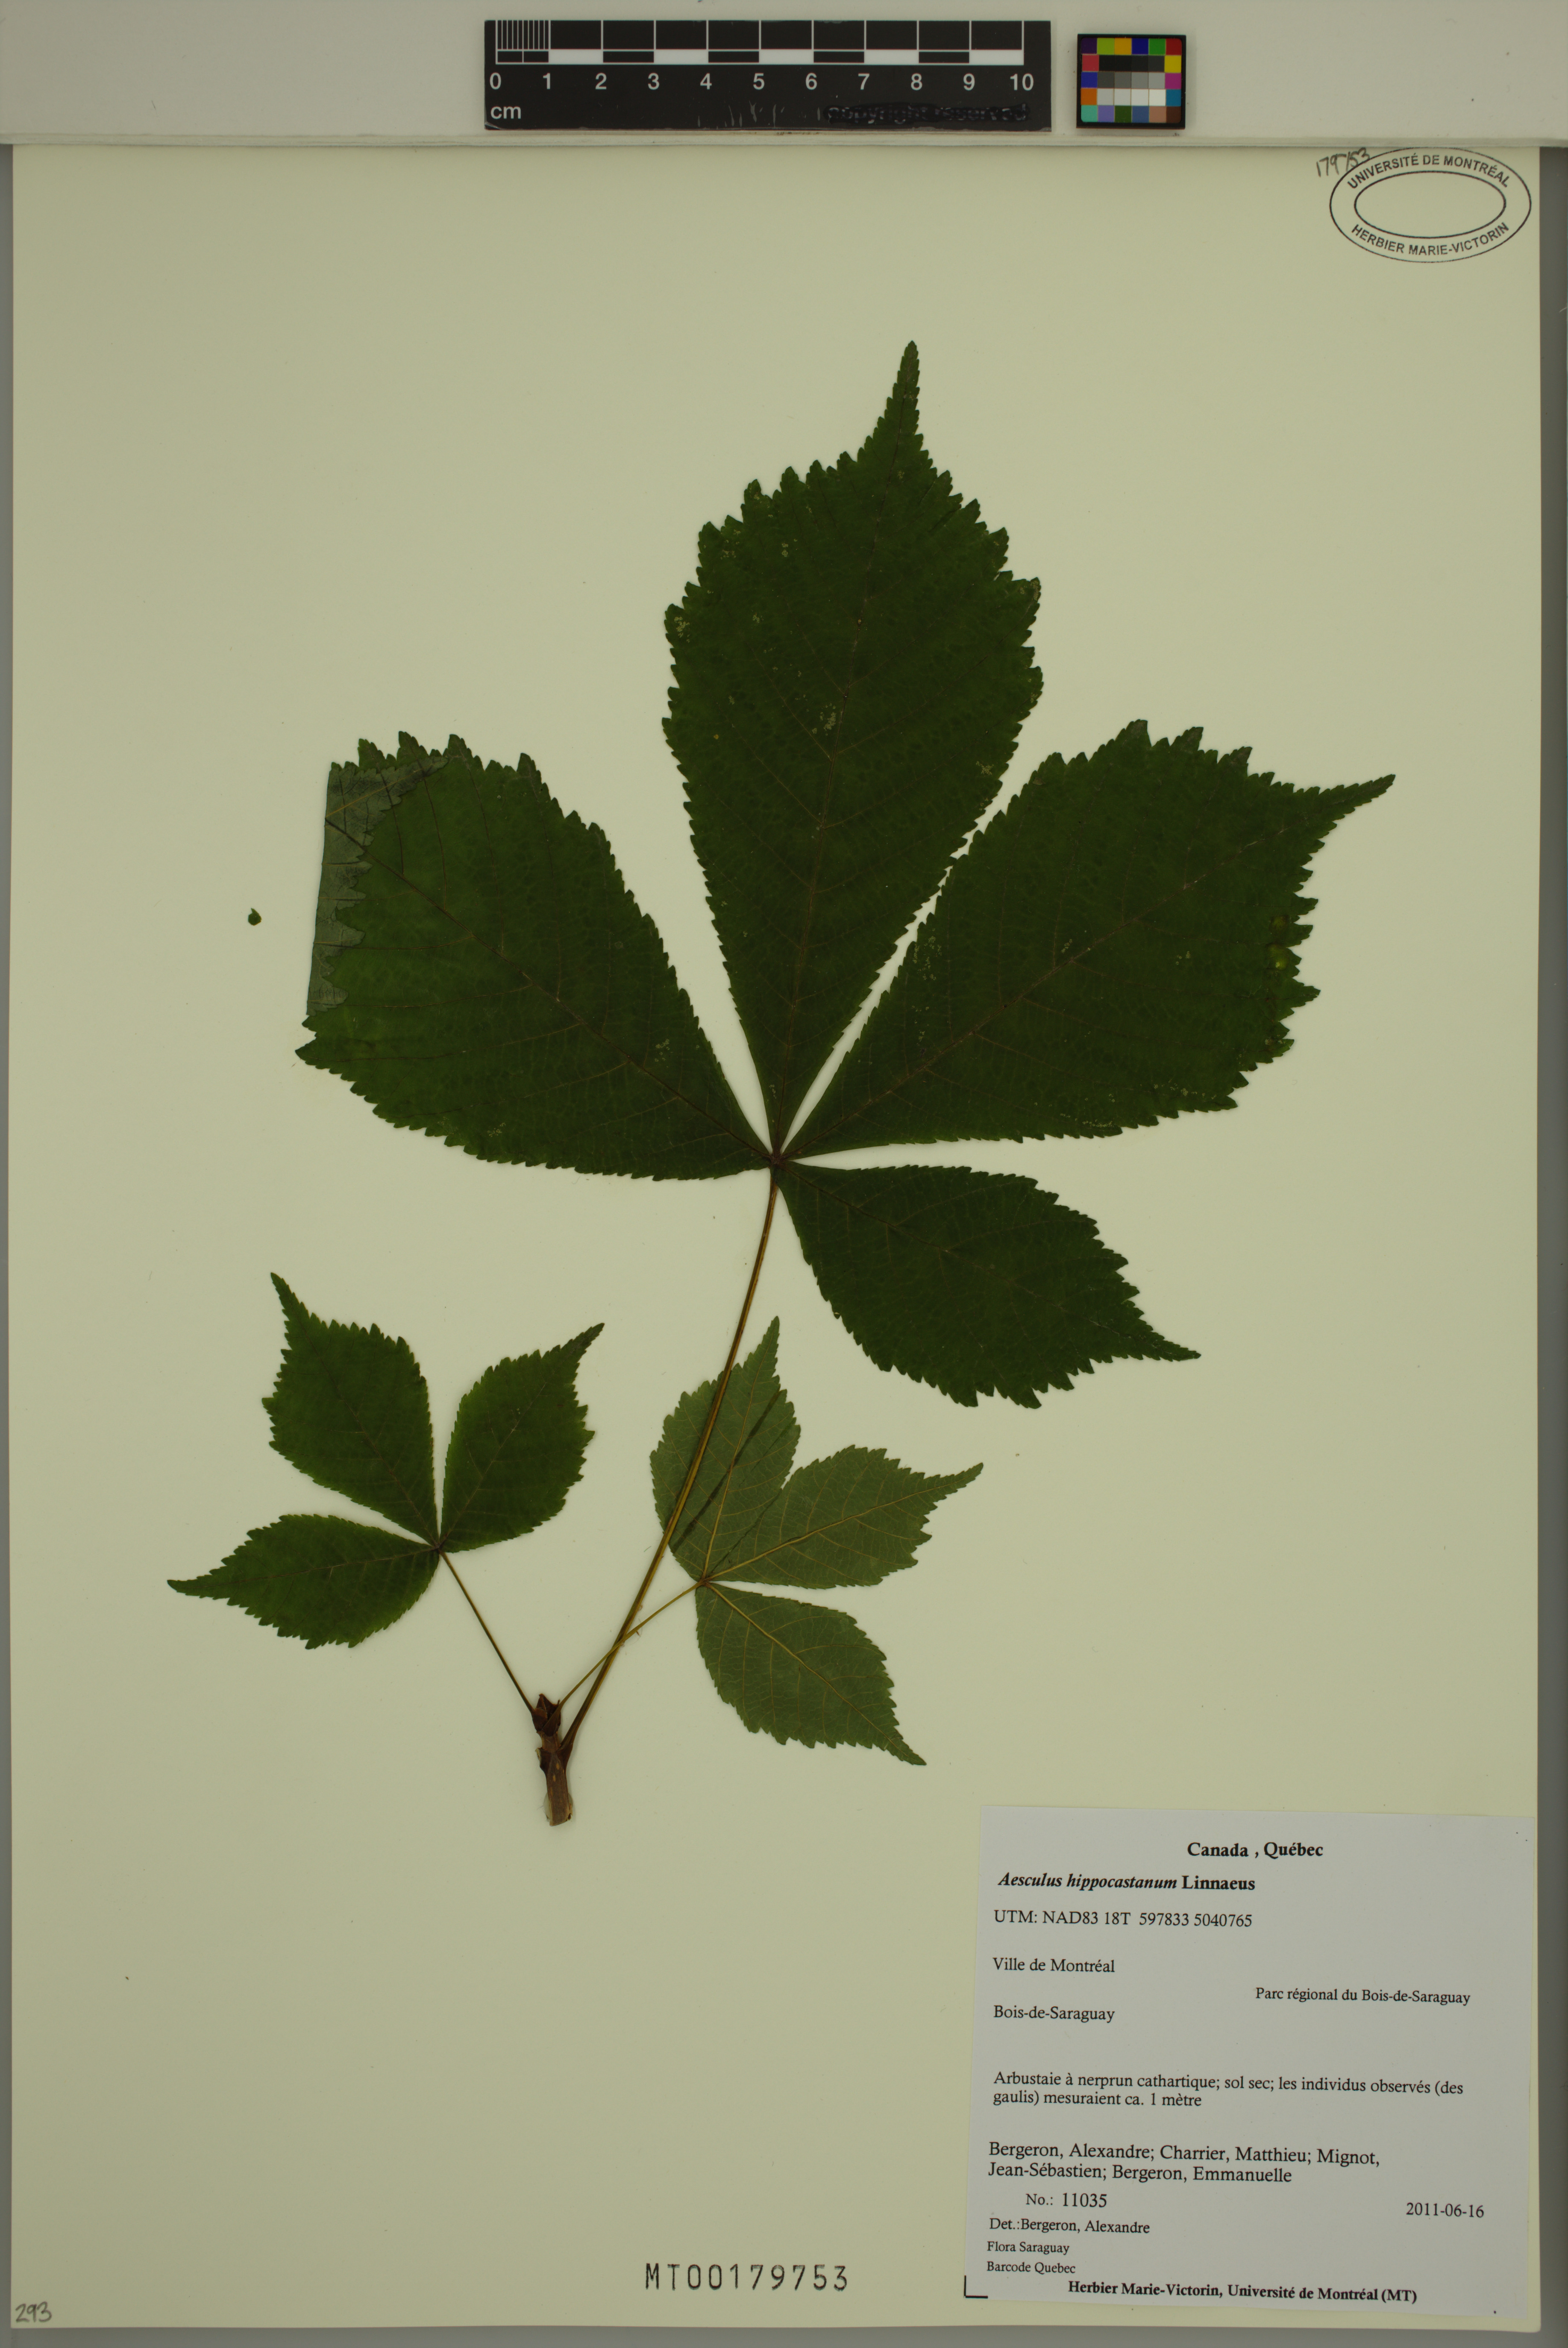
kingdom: Plantae
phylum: Tracheophyta
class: Magnoliopsida
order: Sapindales
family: Sapindaceae
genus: Aesculus
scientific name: Aesculus hippocastanum
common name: Horse-chestnut
